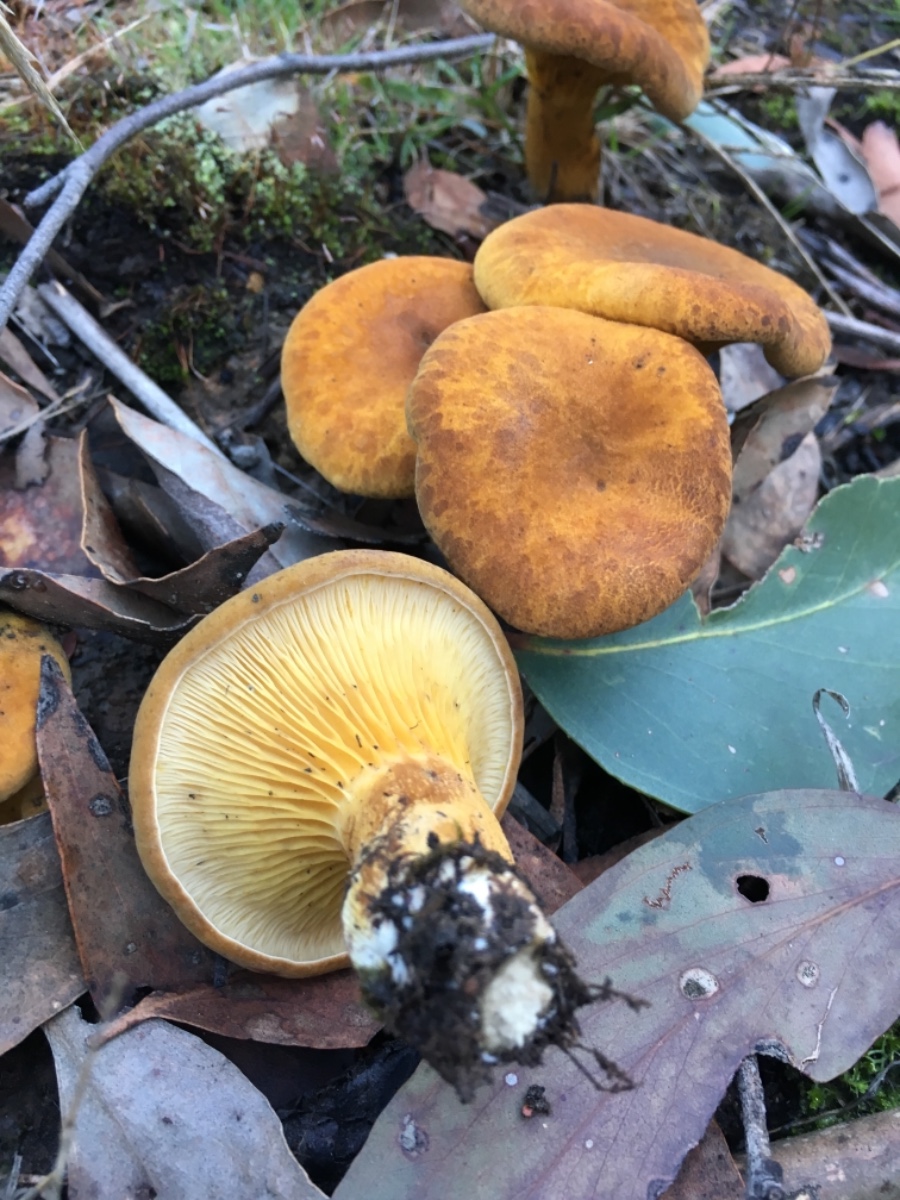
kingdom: Fungi
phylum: Basidiomycota
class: Agaricomycetes
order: Boletales
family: Serpulaceae
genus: Austropaxillus
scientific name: Austropaxillus infundibuliformis
